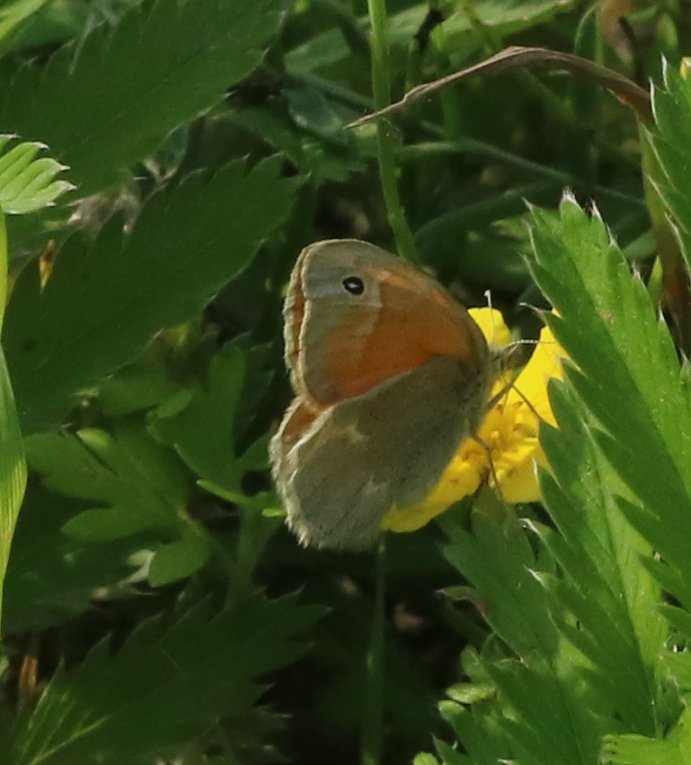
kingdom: Animalia
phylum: Arthropoda
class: Insecta
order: Lepidoptera
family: Nymphalidae
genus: Coenonympha
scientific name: Coenonympha tullia
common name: Large Heath
